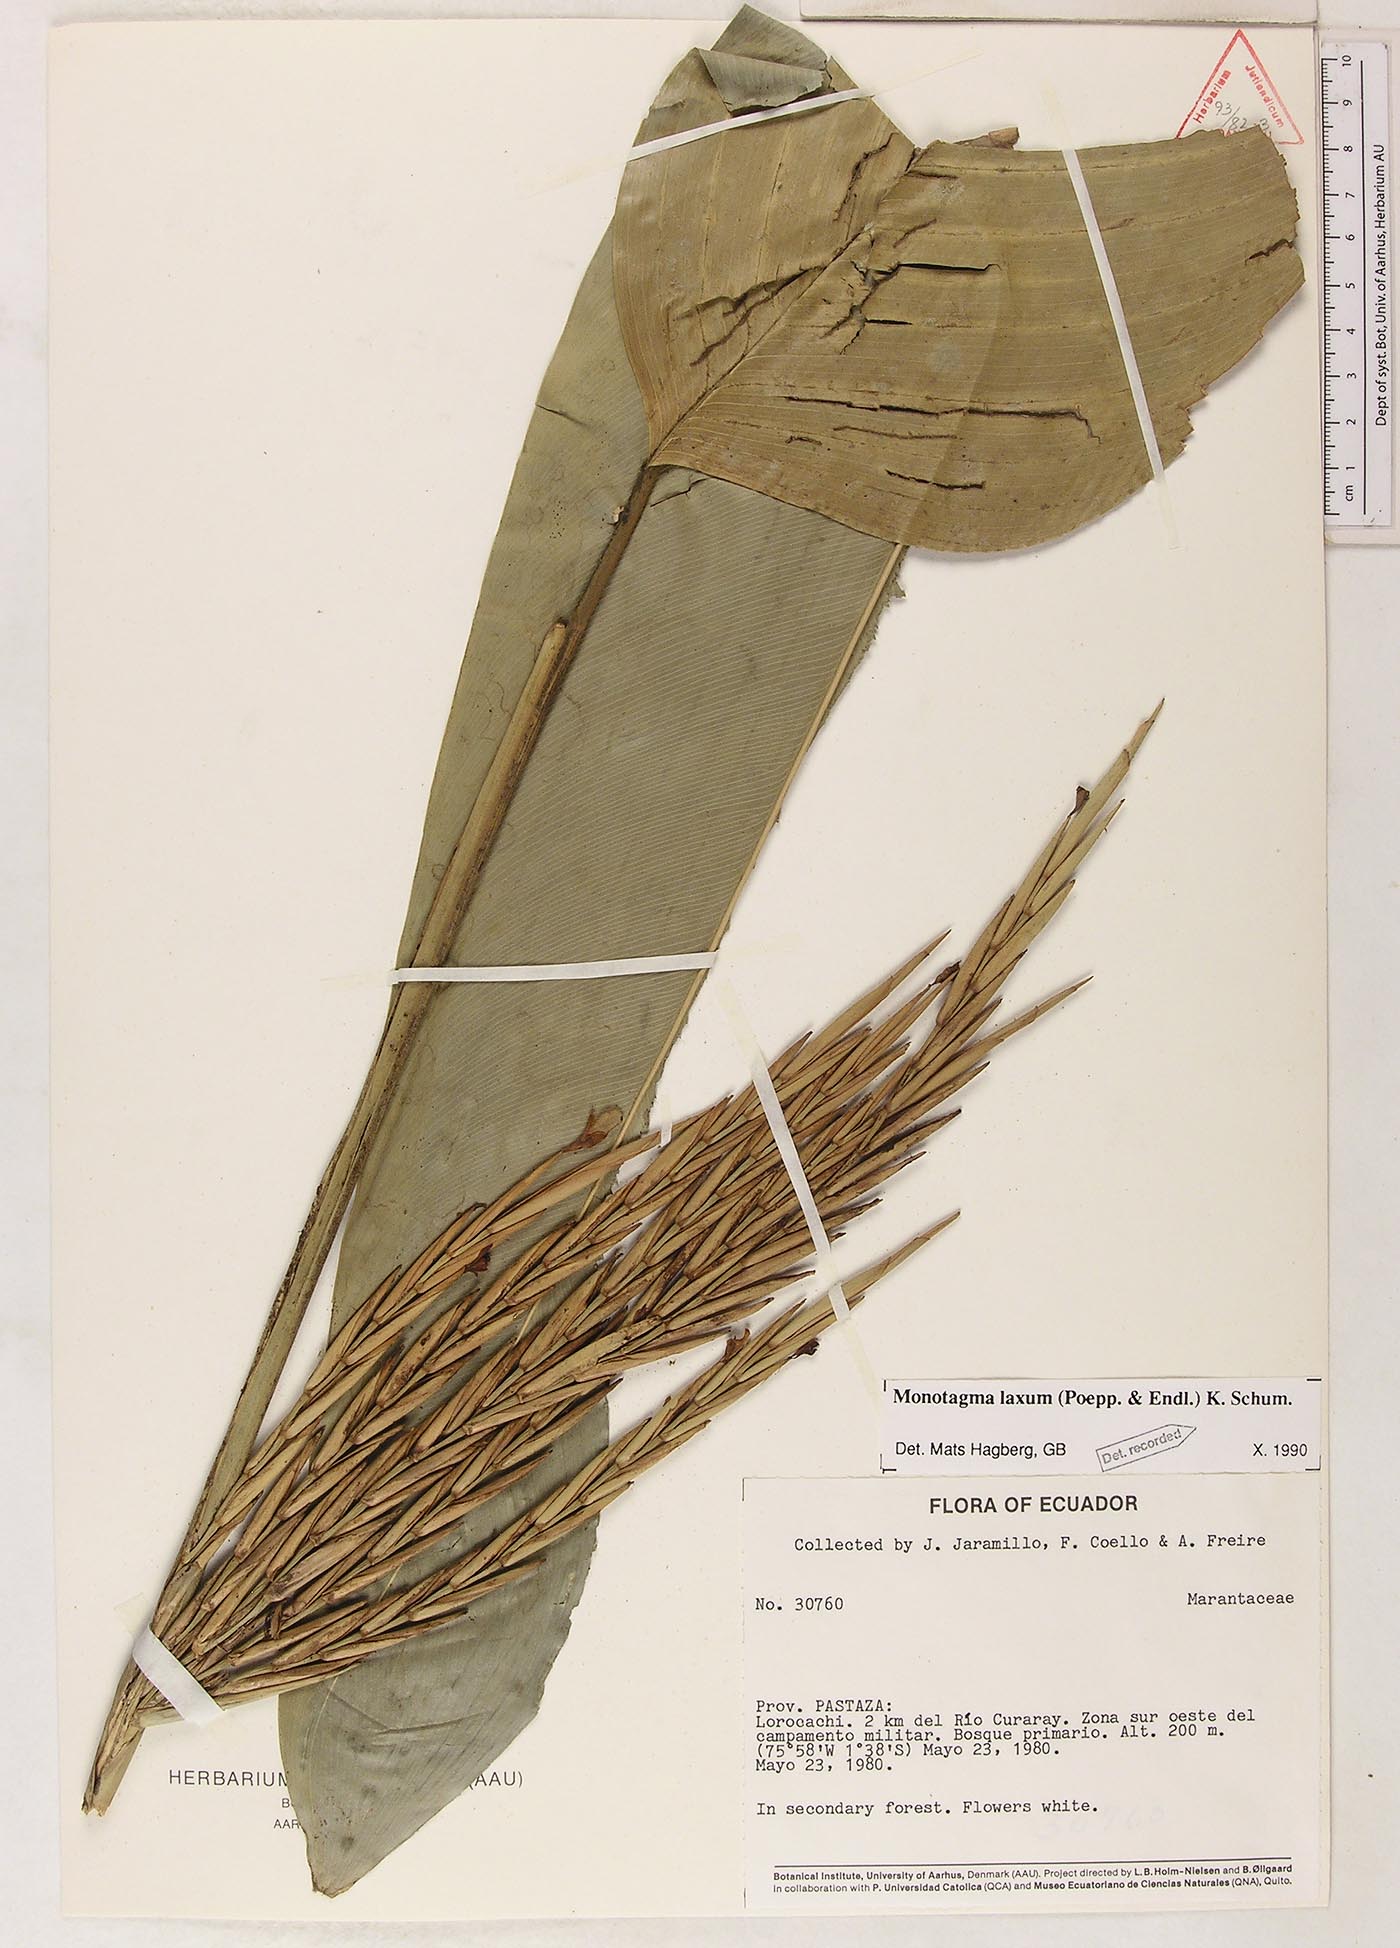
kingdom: Plantae
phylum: Tracheophyta
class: Liliopsida
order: Zingiberales
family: Marantaceae
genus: Monotagma
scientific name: Monotagma laxum
